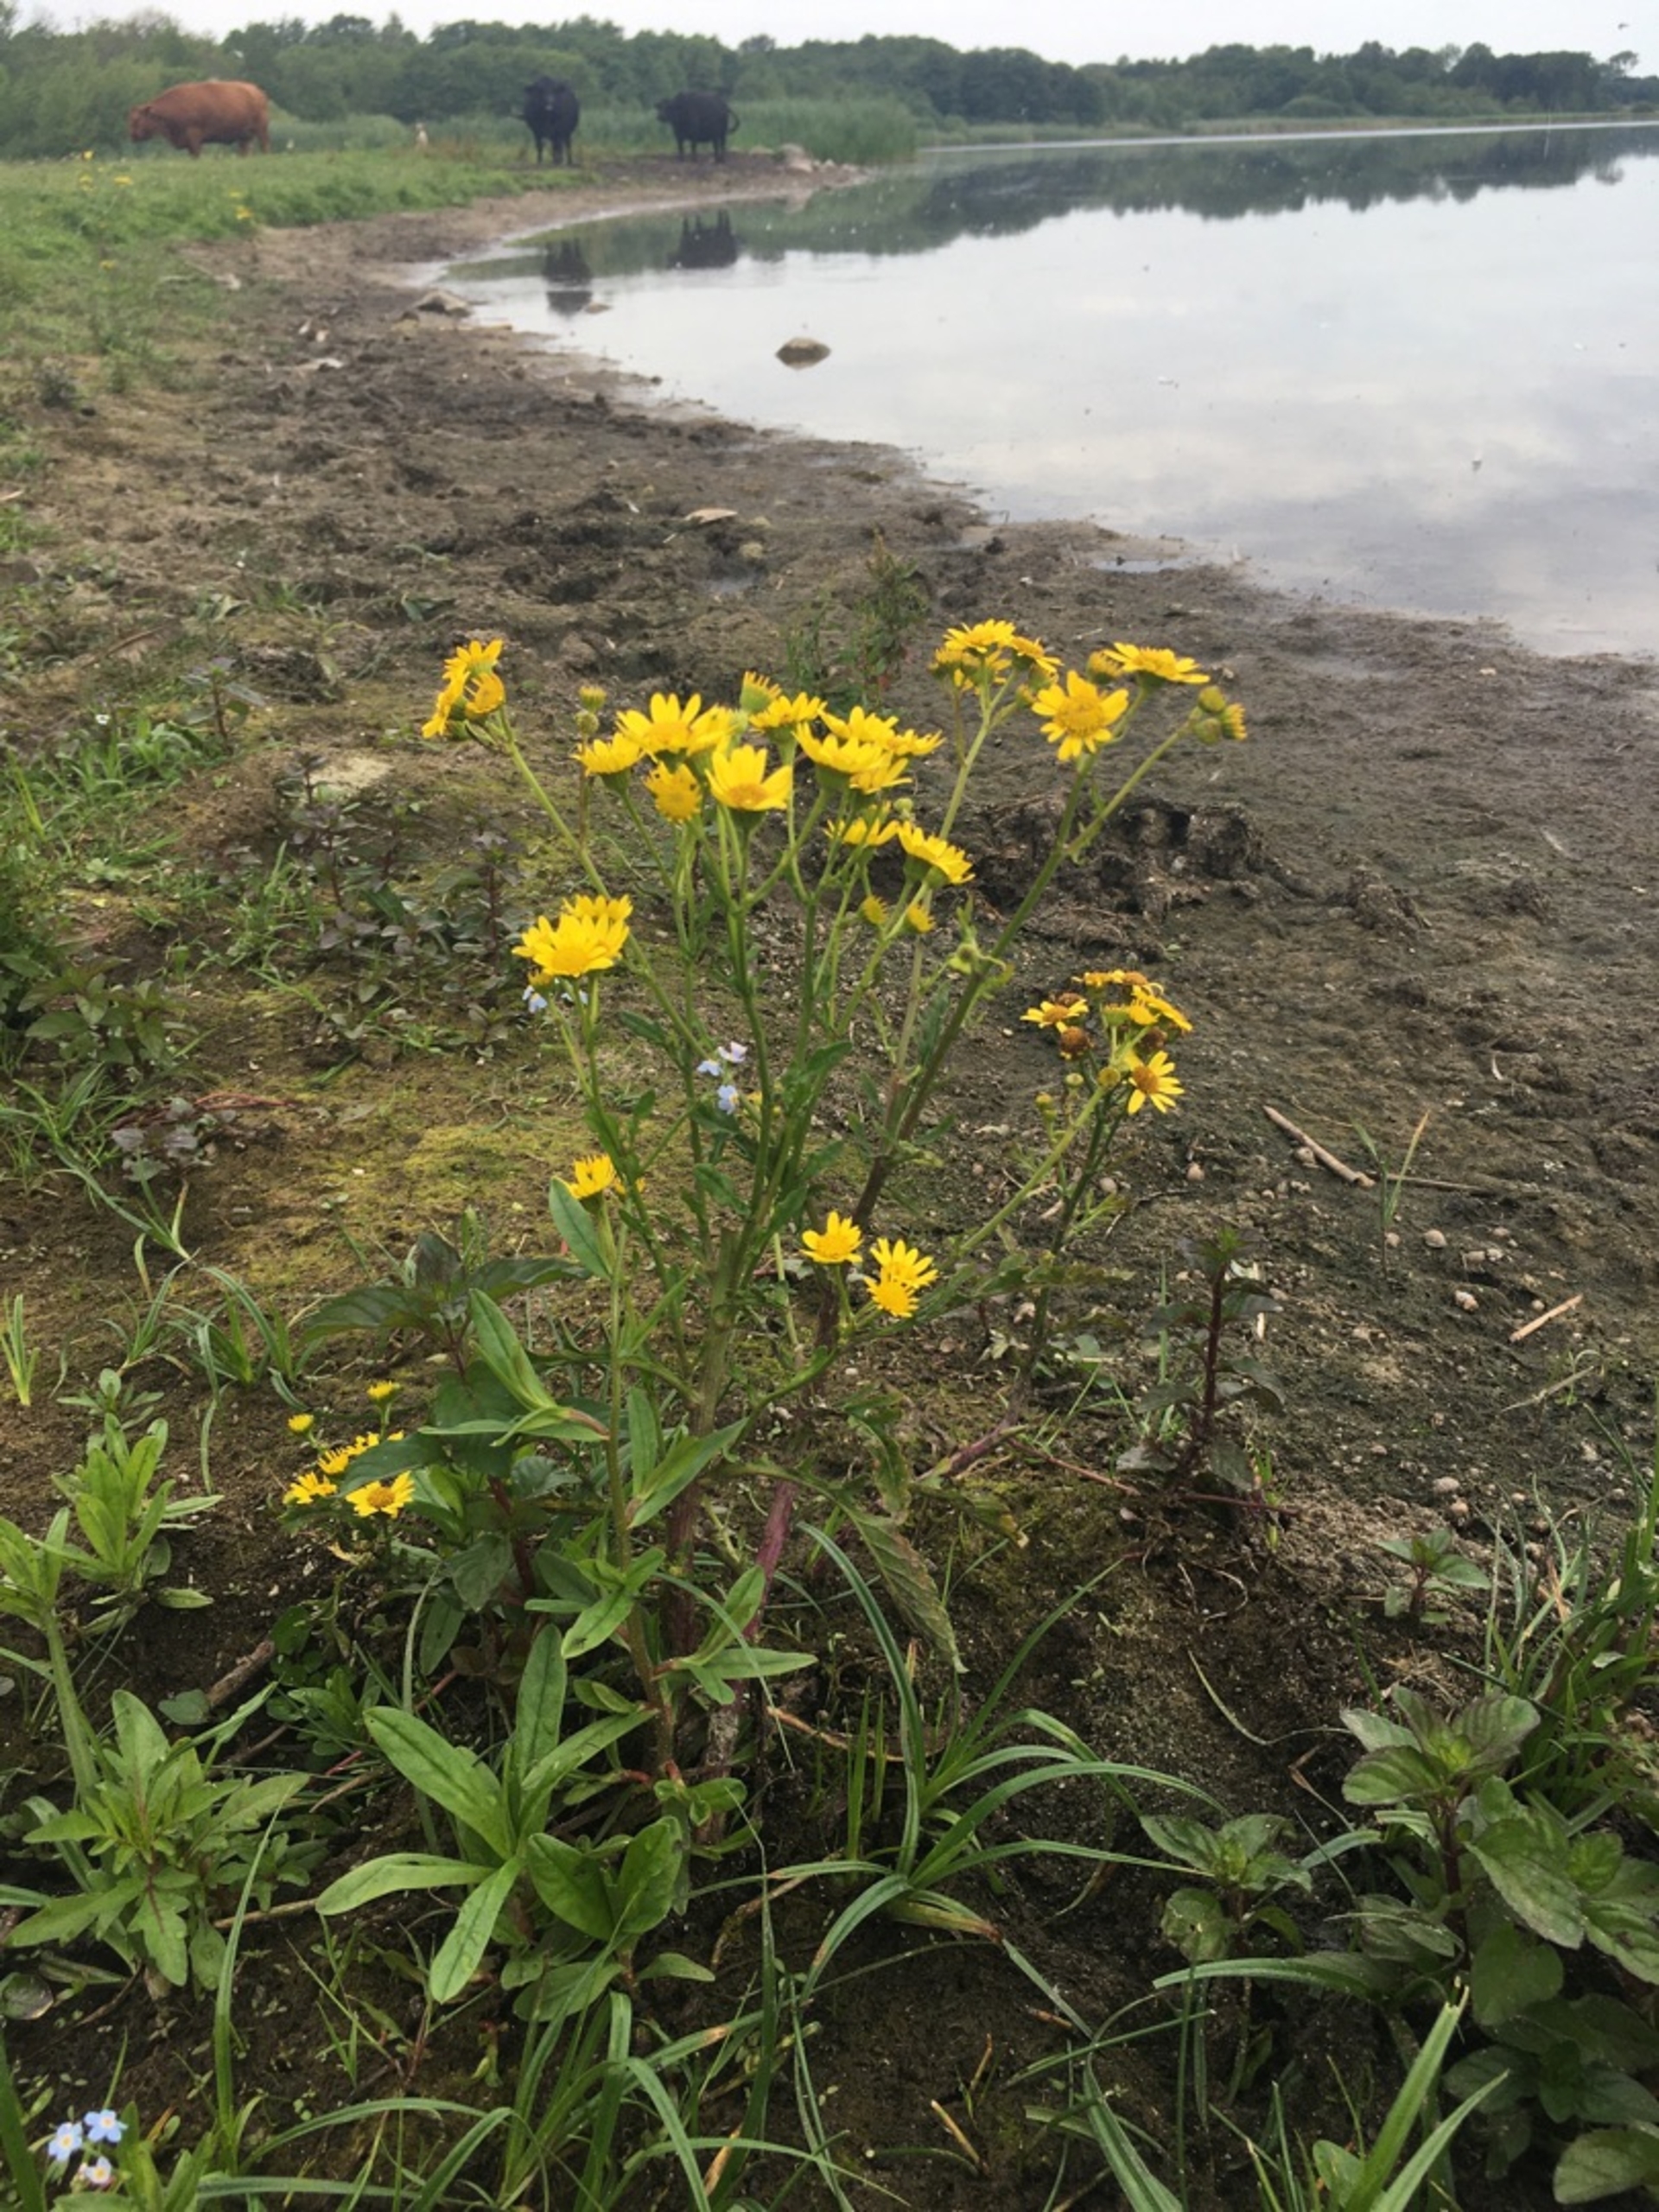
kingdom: Plantae
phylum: Tracheophyta
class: Magnoliopsida
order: Asterales
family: Asteraceae
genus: Jacobaea
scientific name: Jacobaea aquatica
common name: Vand-brandbæger
